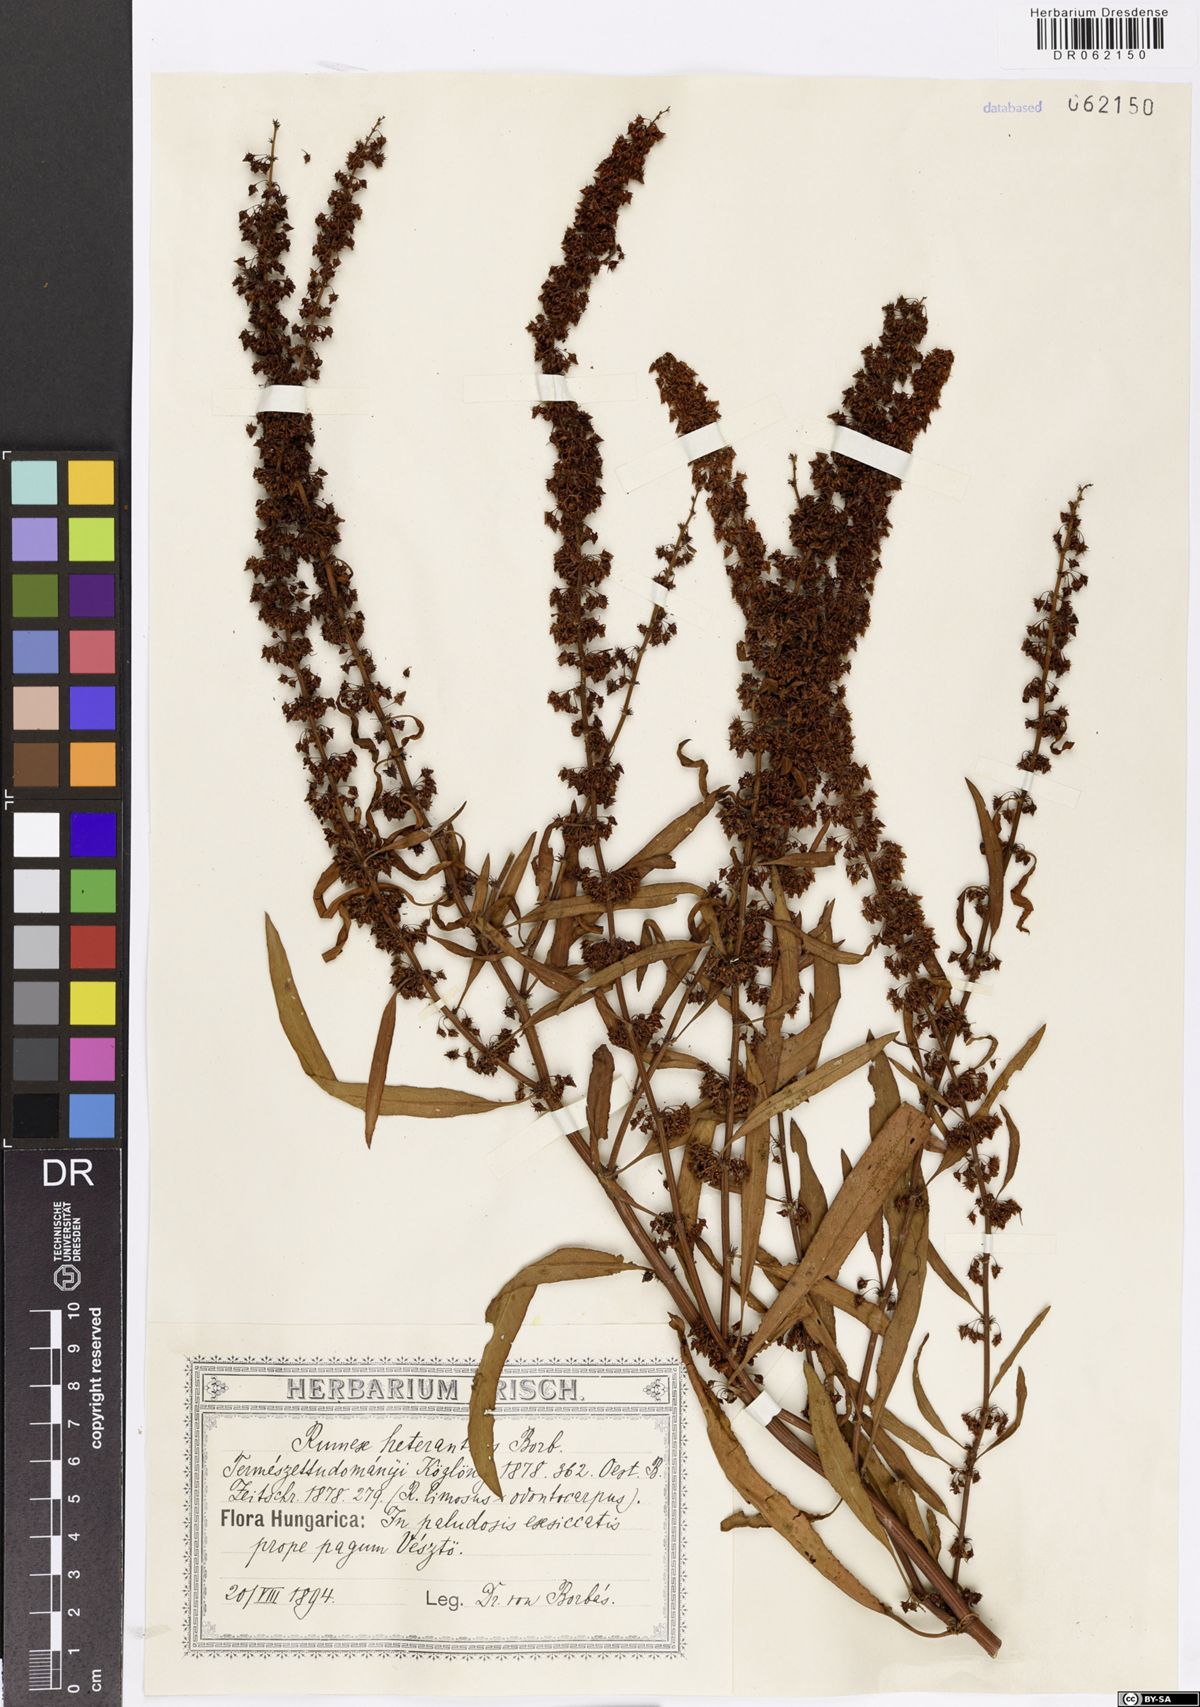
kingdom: Plantae
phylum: Tracheophyta
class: Magnoliopsida
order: Caryophyllales
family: Polygonaceae
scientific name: Polygonaceae
